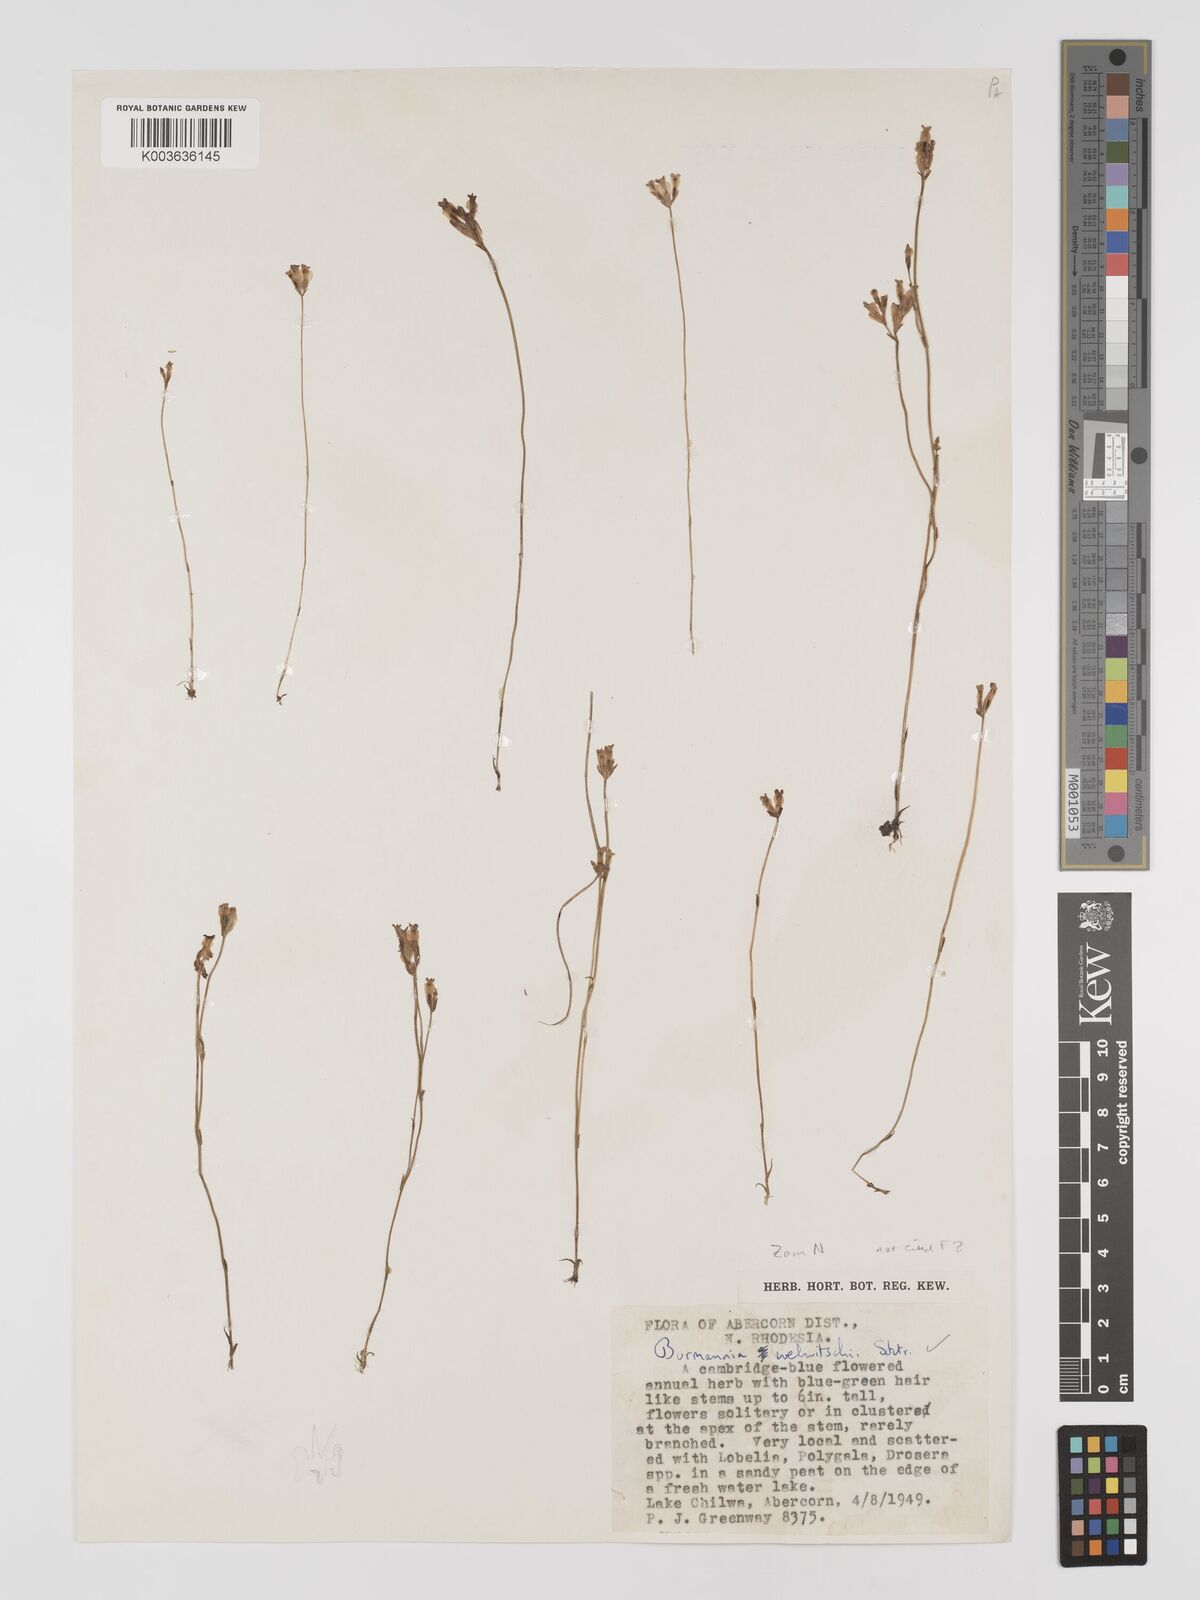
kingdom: Plantae
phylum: Tracheophyta
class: Liliopsida
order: Dioscoreales
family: Burmanniaceae
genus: Burmannia
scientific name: Burmannia madagascariensis
